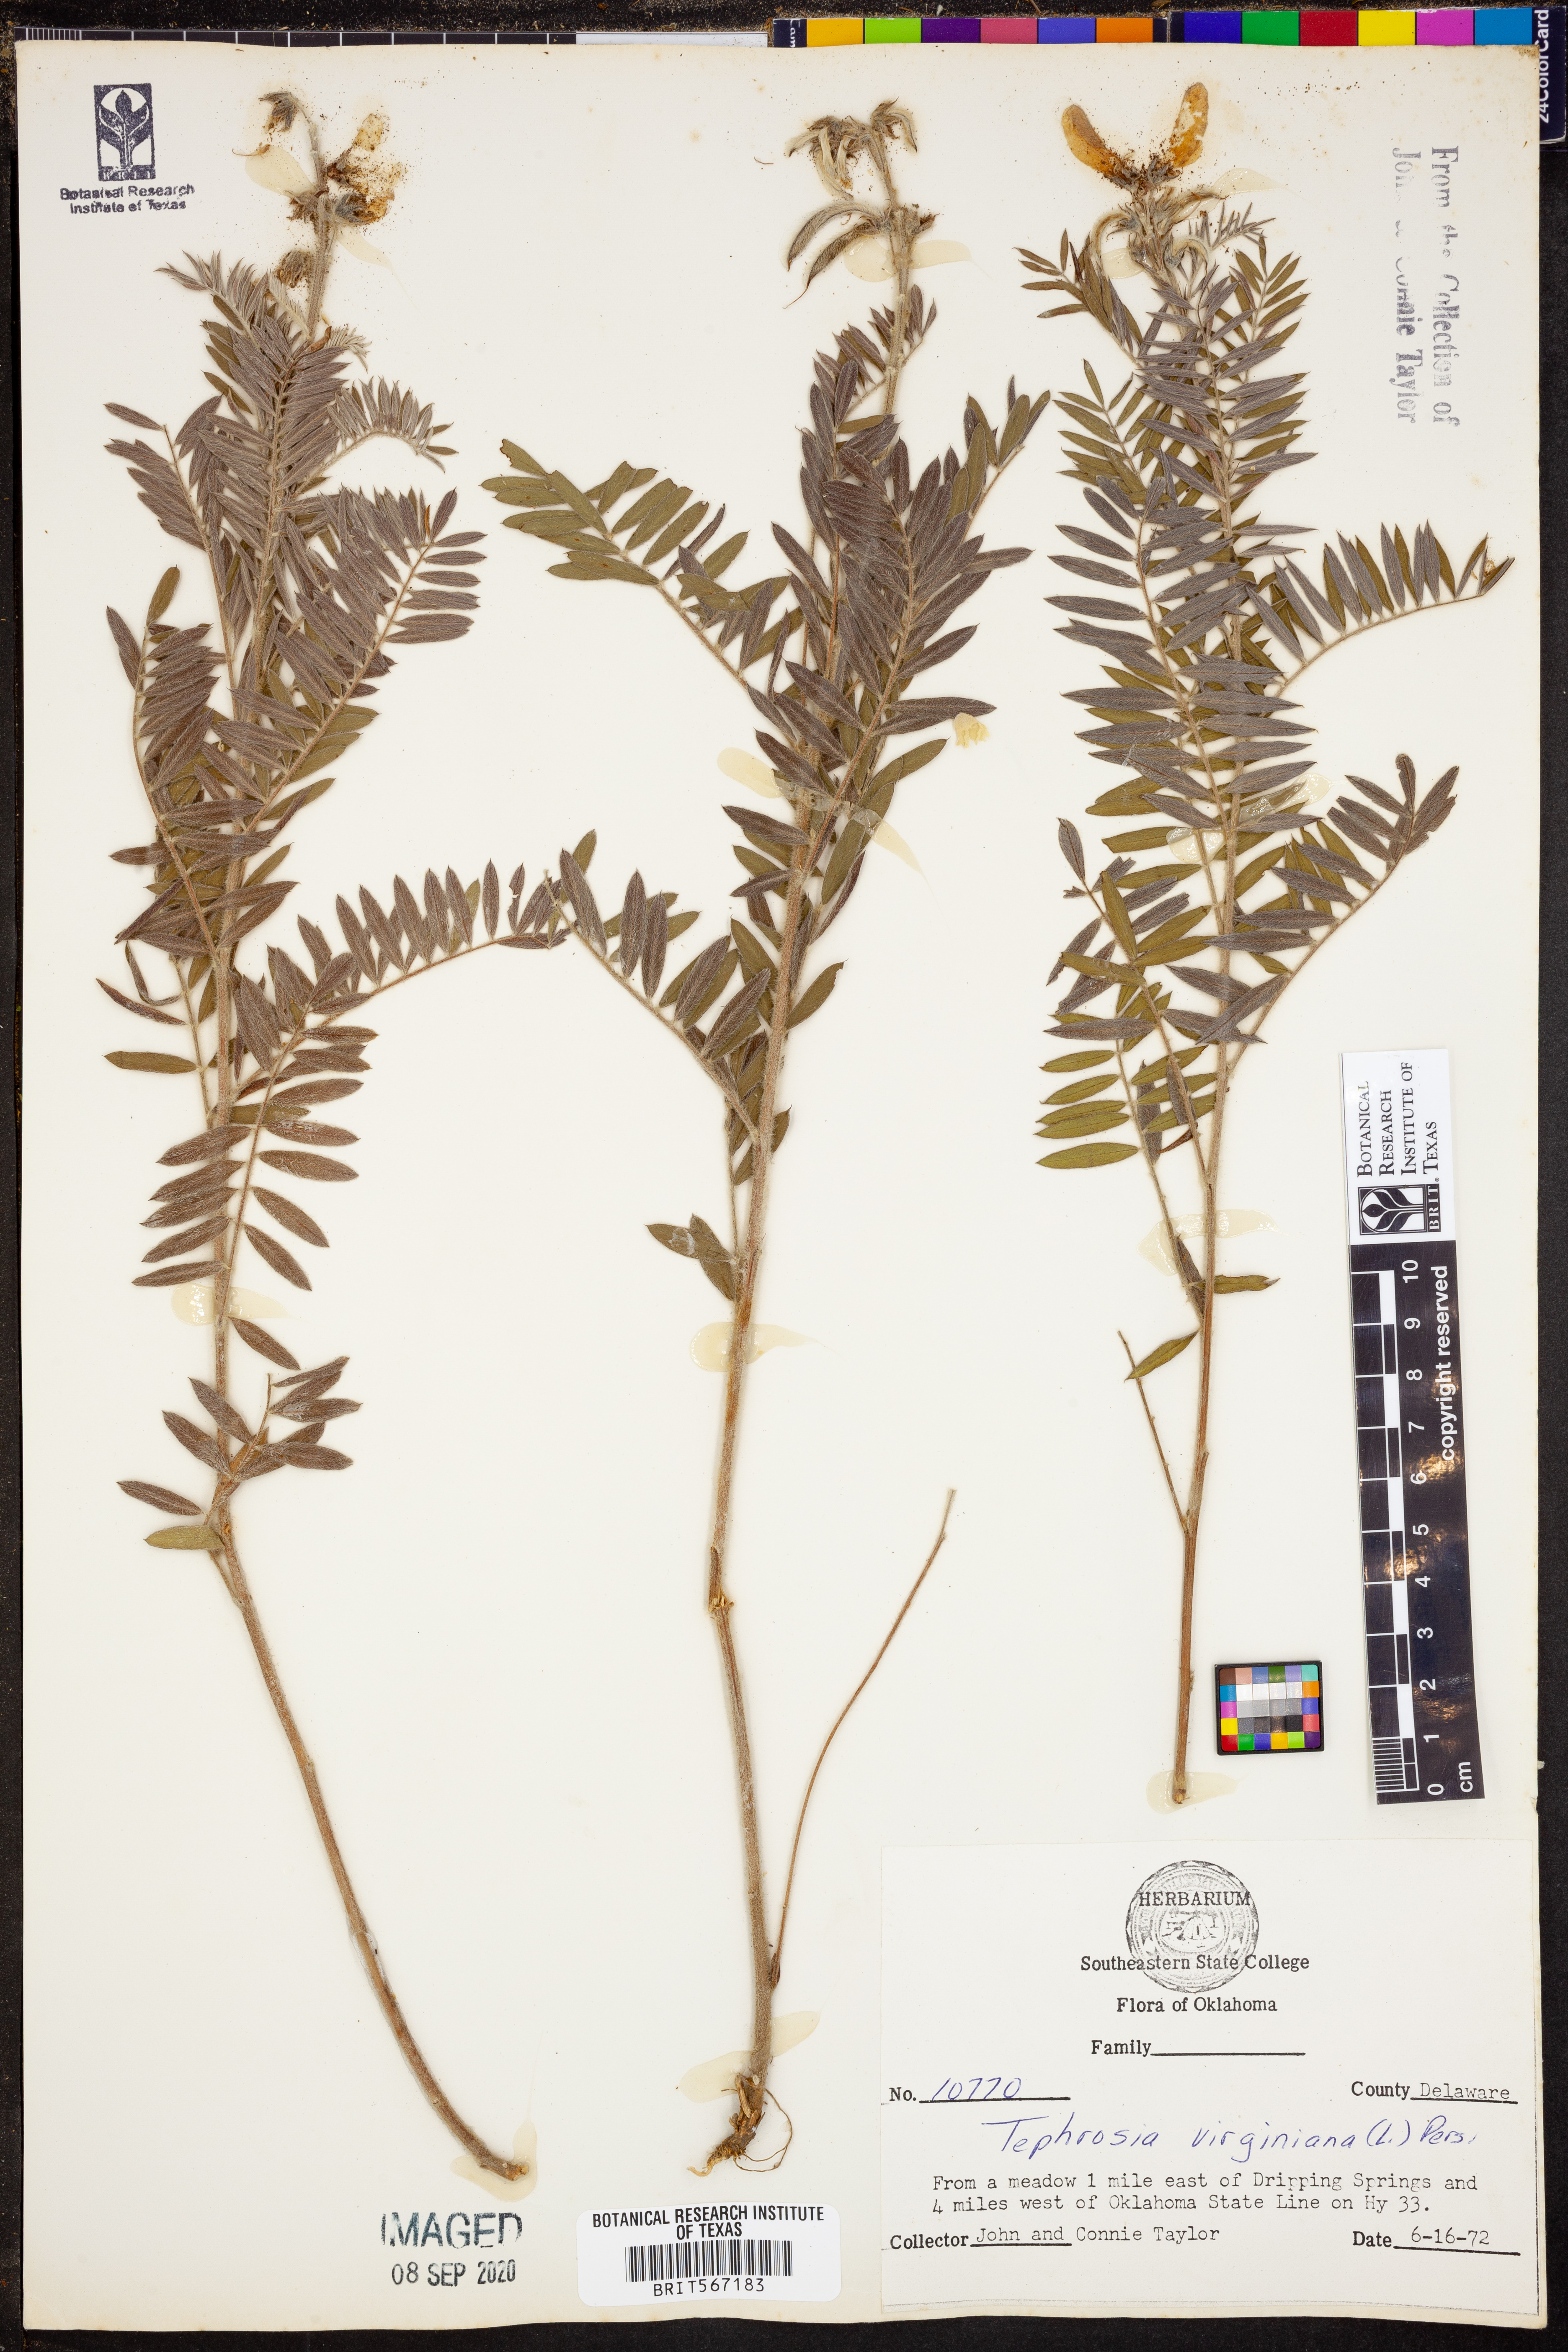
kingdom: Plantae
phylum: Tracheophyta
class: Magnoliopsida
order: Fabales
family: Fabaceae
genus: Tephrosia
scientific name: Tephrosia virginiana
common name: Rabbit-pea
